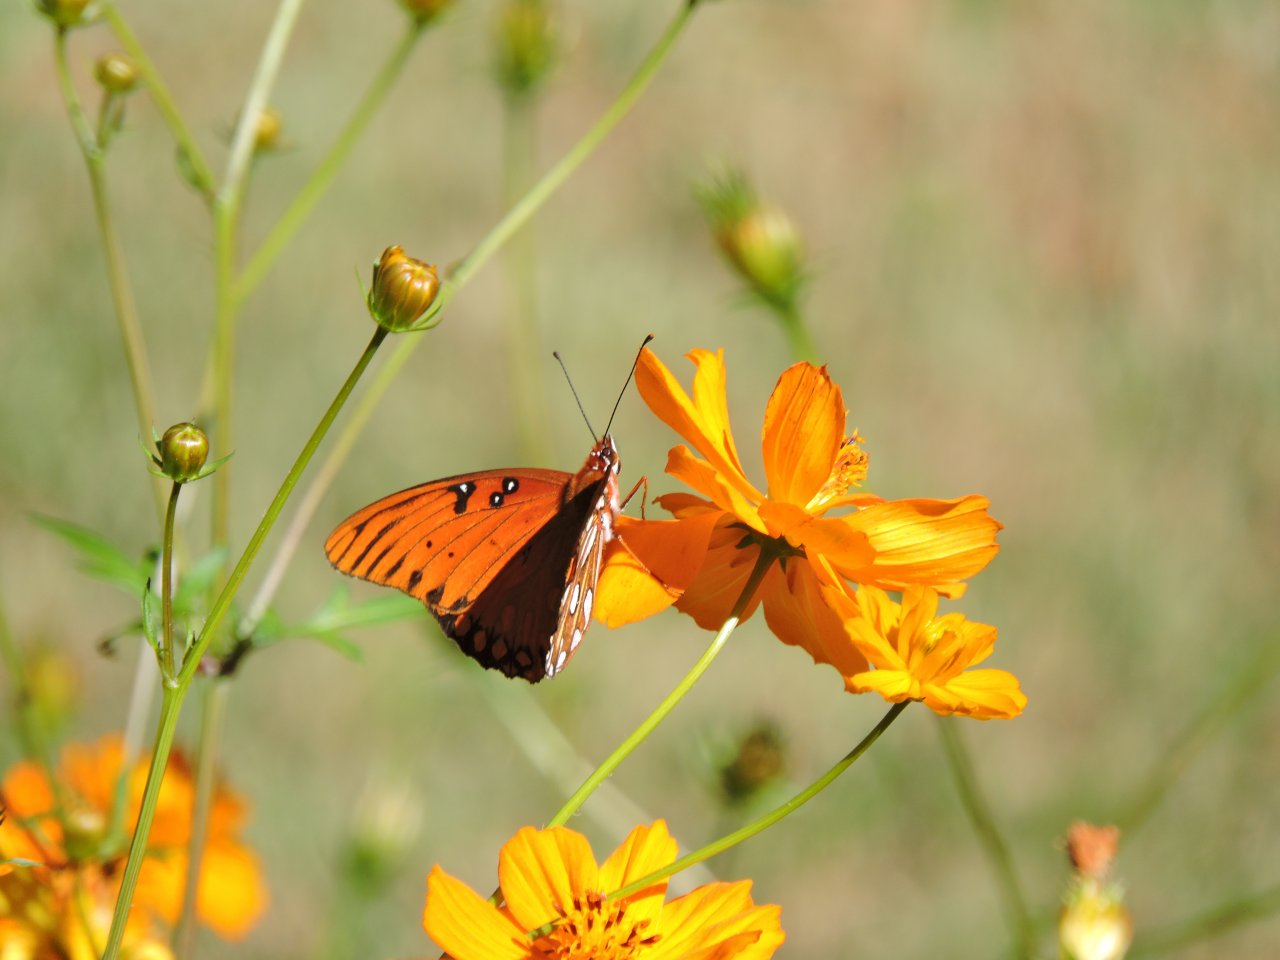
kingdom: Animalia
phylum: Arthropoda
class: Insecta
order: Lepidoptera
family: Nymphalidae
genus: Dione
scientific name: Dione vanillae
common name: Gulf Fritillary
